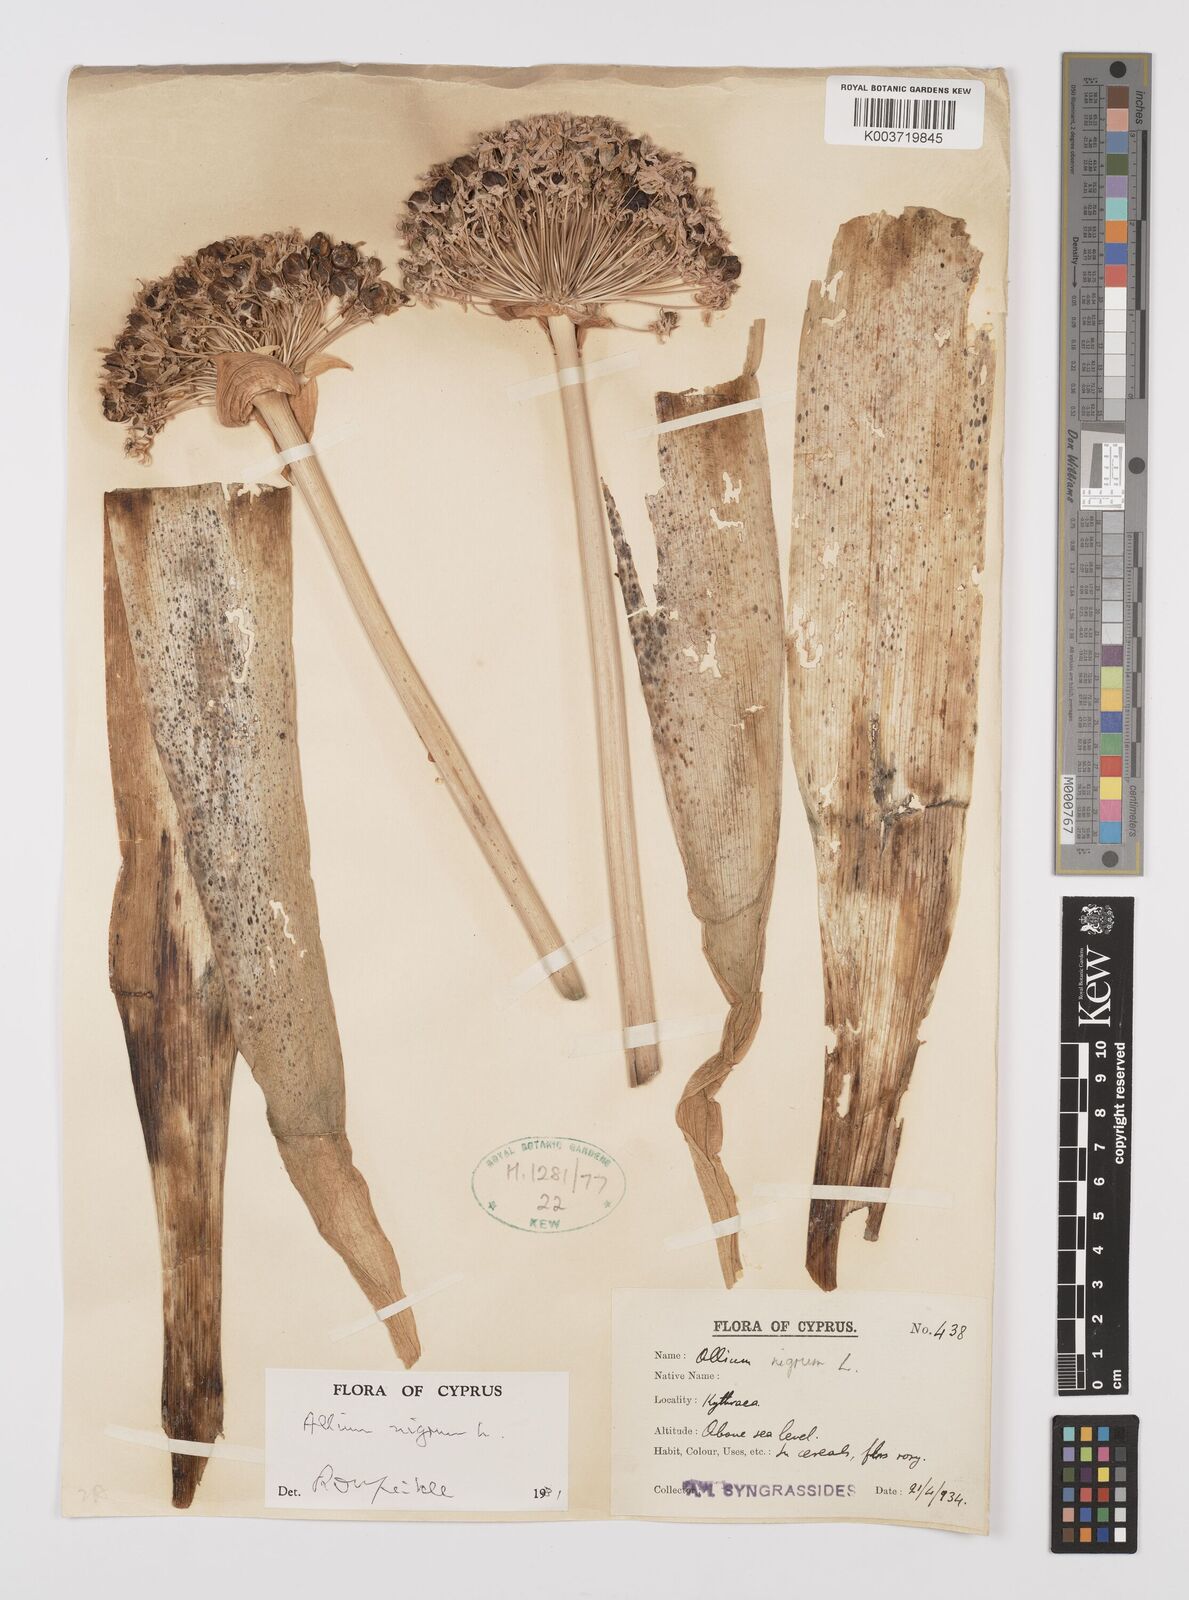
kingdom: Plantae
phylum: Tracheophyta
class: Liliopsida
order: Asparagales
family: Amaryllidaceae
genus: Allium
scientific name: Allium nigrum
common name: Black garlic
